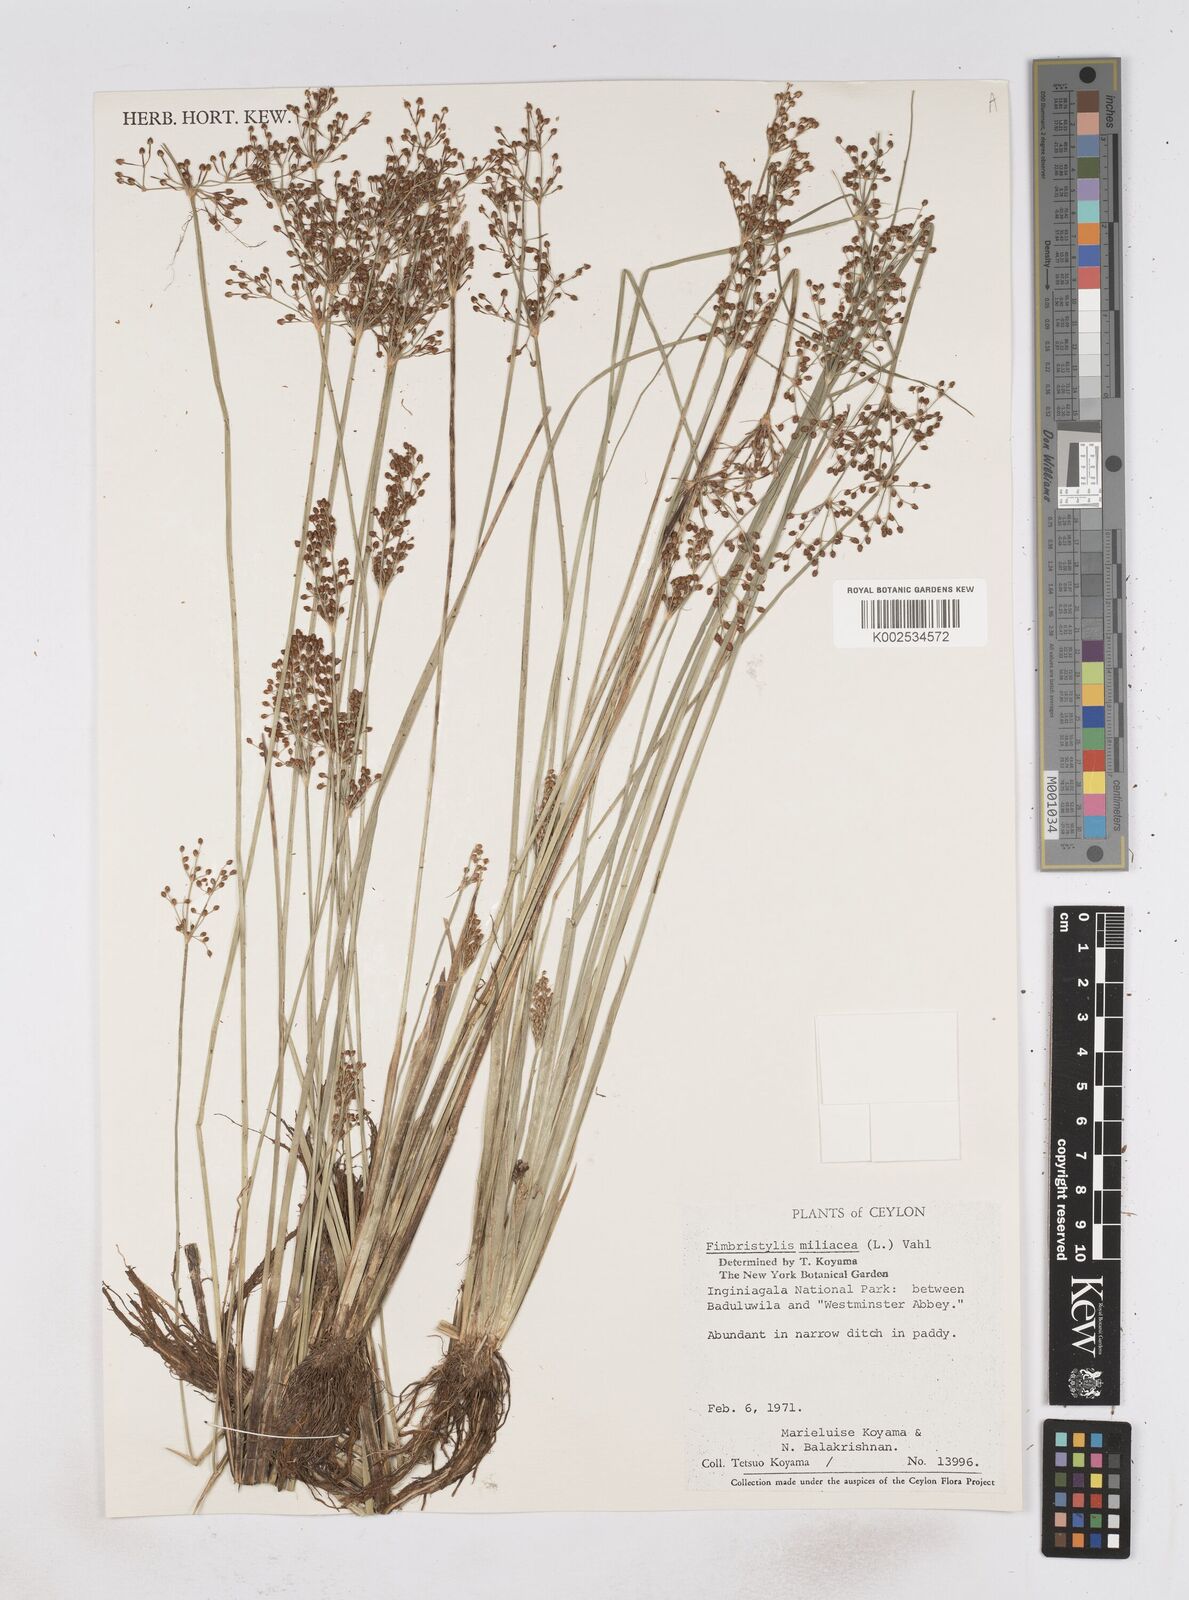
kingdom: Plantae
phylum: Tracheophyta
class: Liliopsida
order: Poales
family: Cyperaceae
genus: Fimbristylis
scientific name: Fimbristylis quinquangularis
